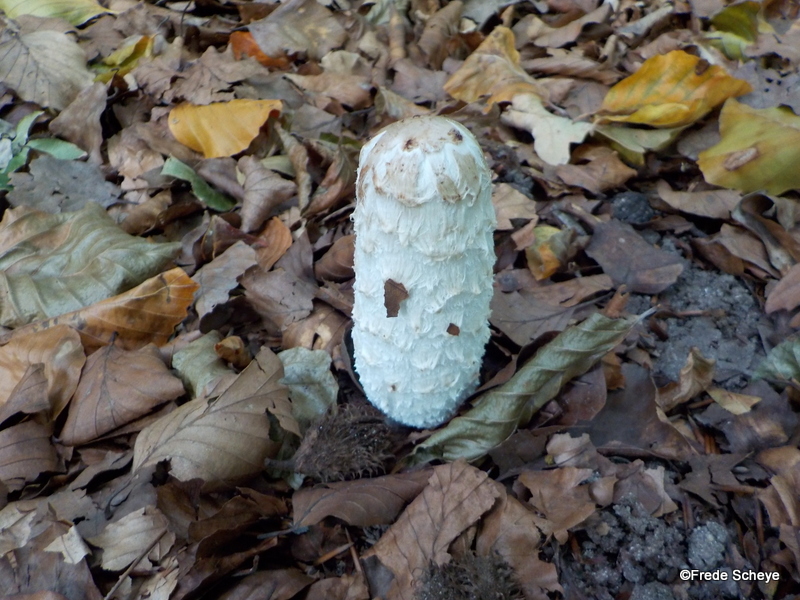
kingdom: Fungi
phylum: Basidiomycota
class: Agaricomycetes
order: Agaricales
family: Agaricaceae
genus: Coprinus
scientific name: Coprinus comatus
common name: stor parykhat
